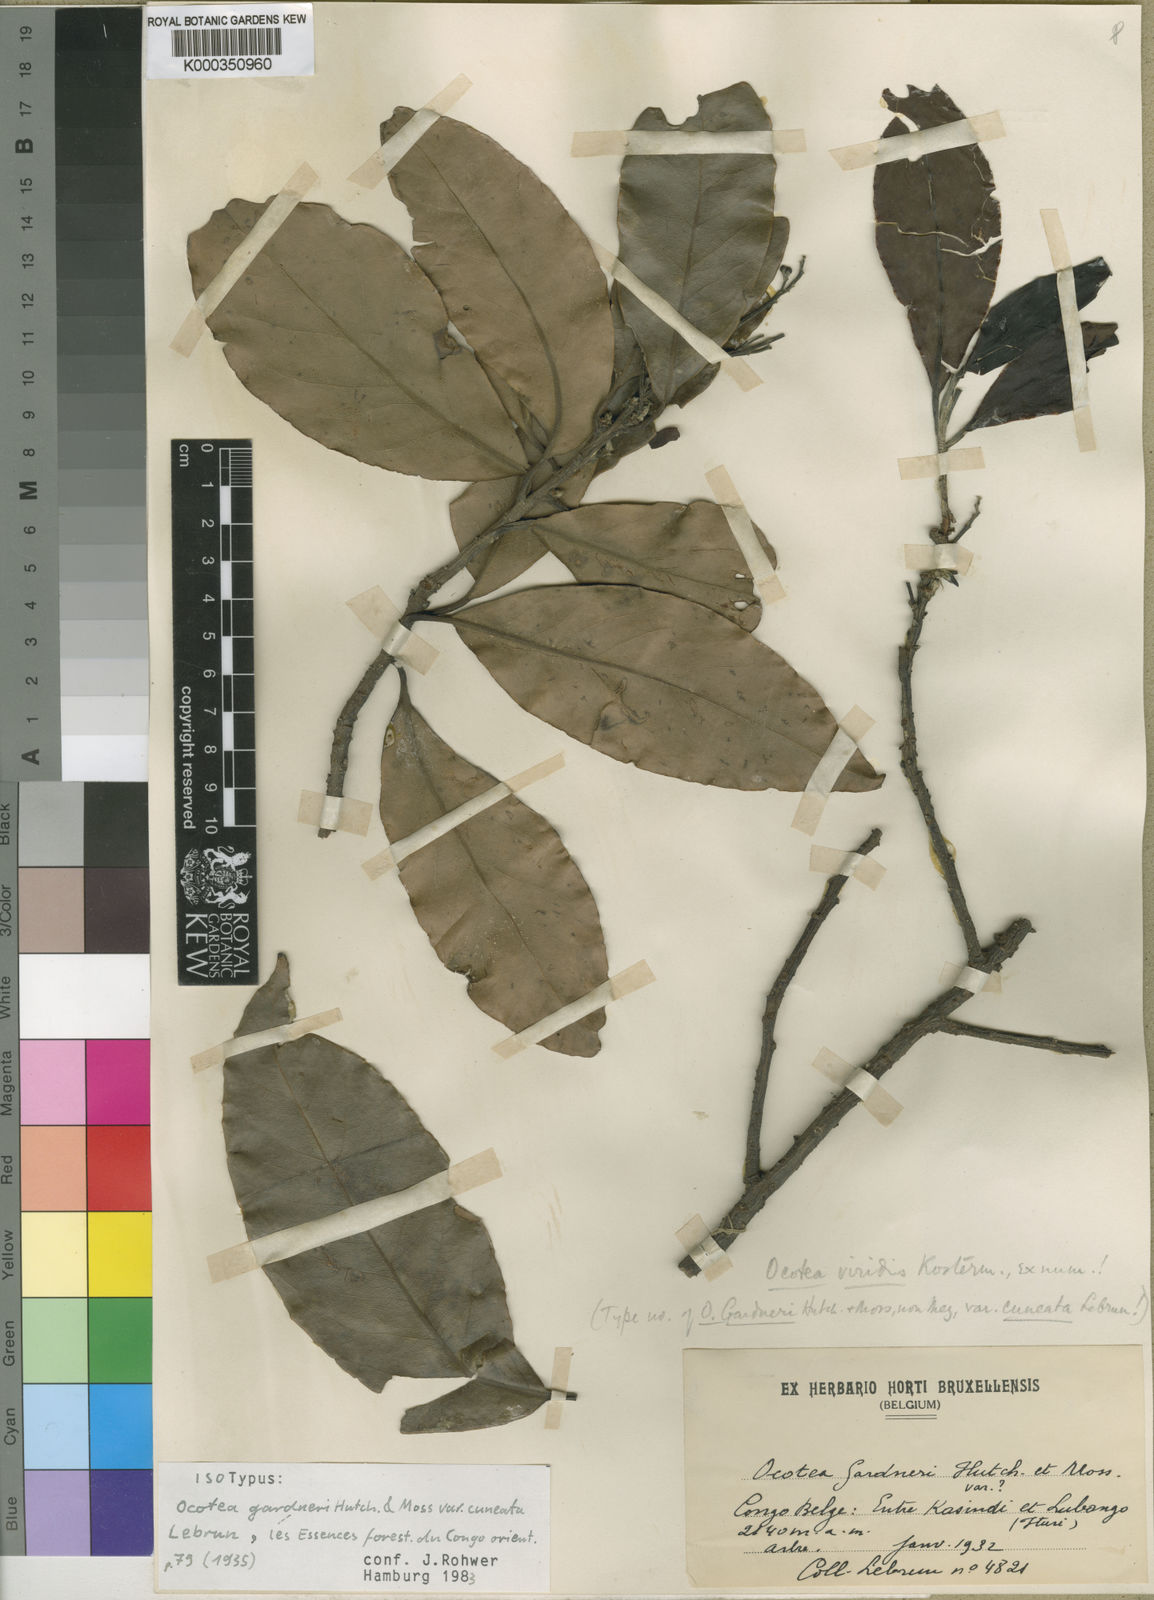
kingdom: Plantae
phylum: Tracheophyta
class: Magnoliopsida
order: Laurales
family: Lauraceae
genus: Ocotea
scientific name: Ocotea
